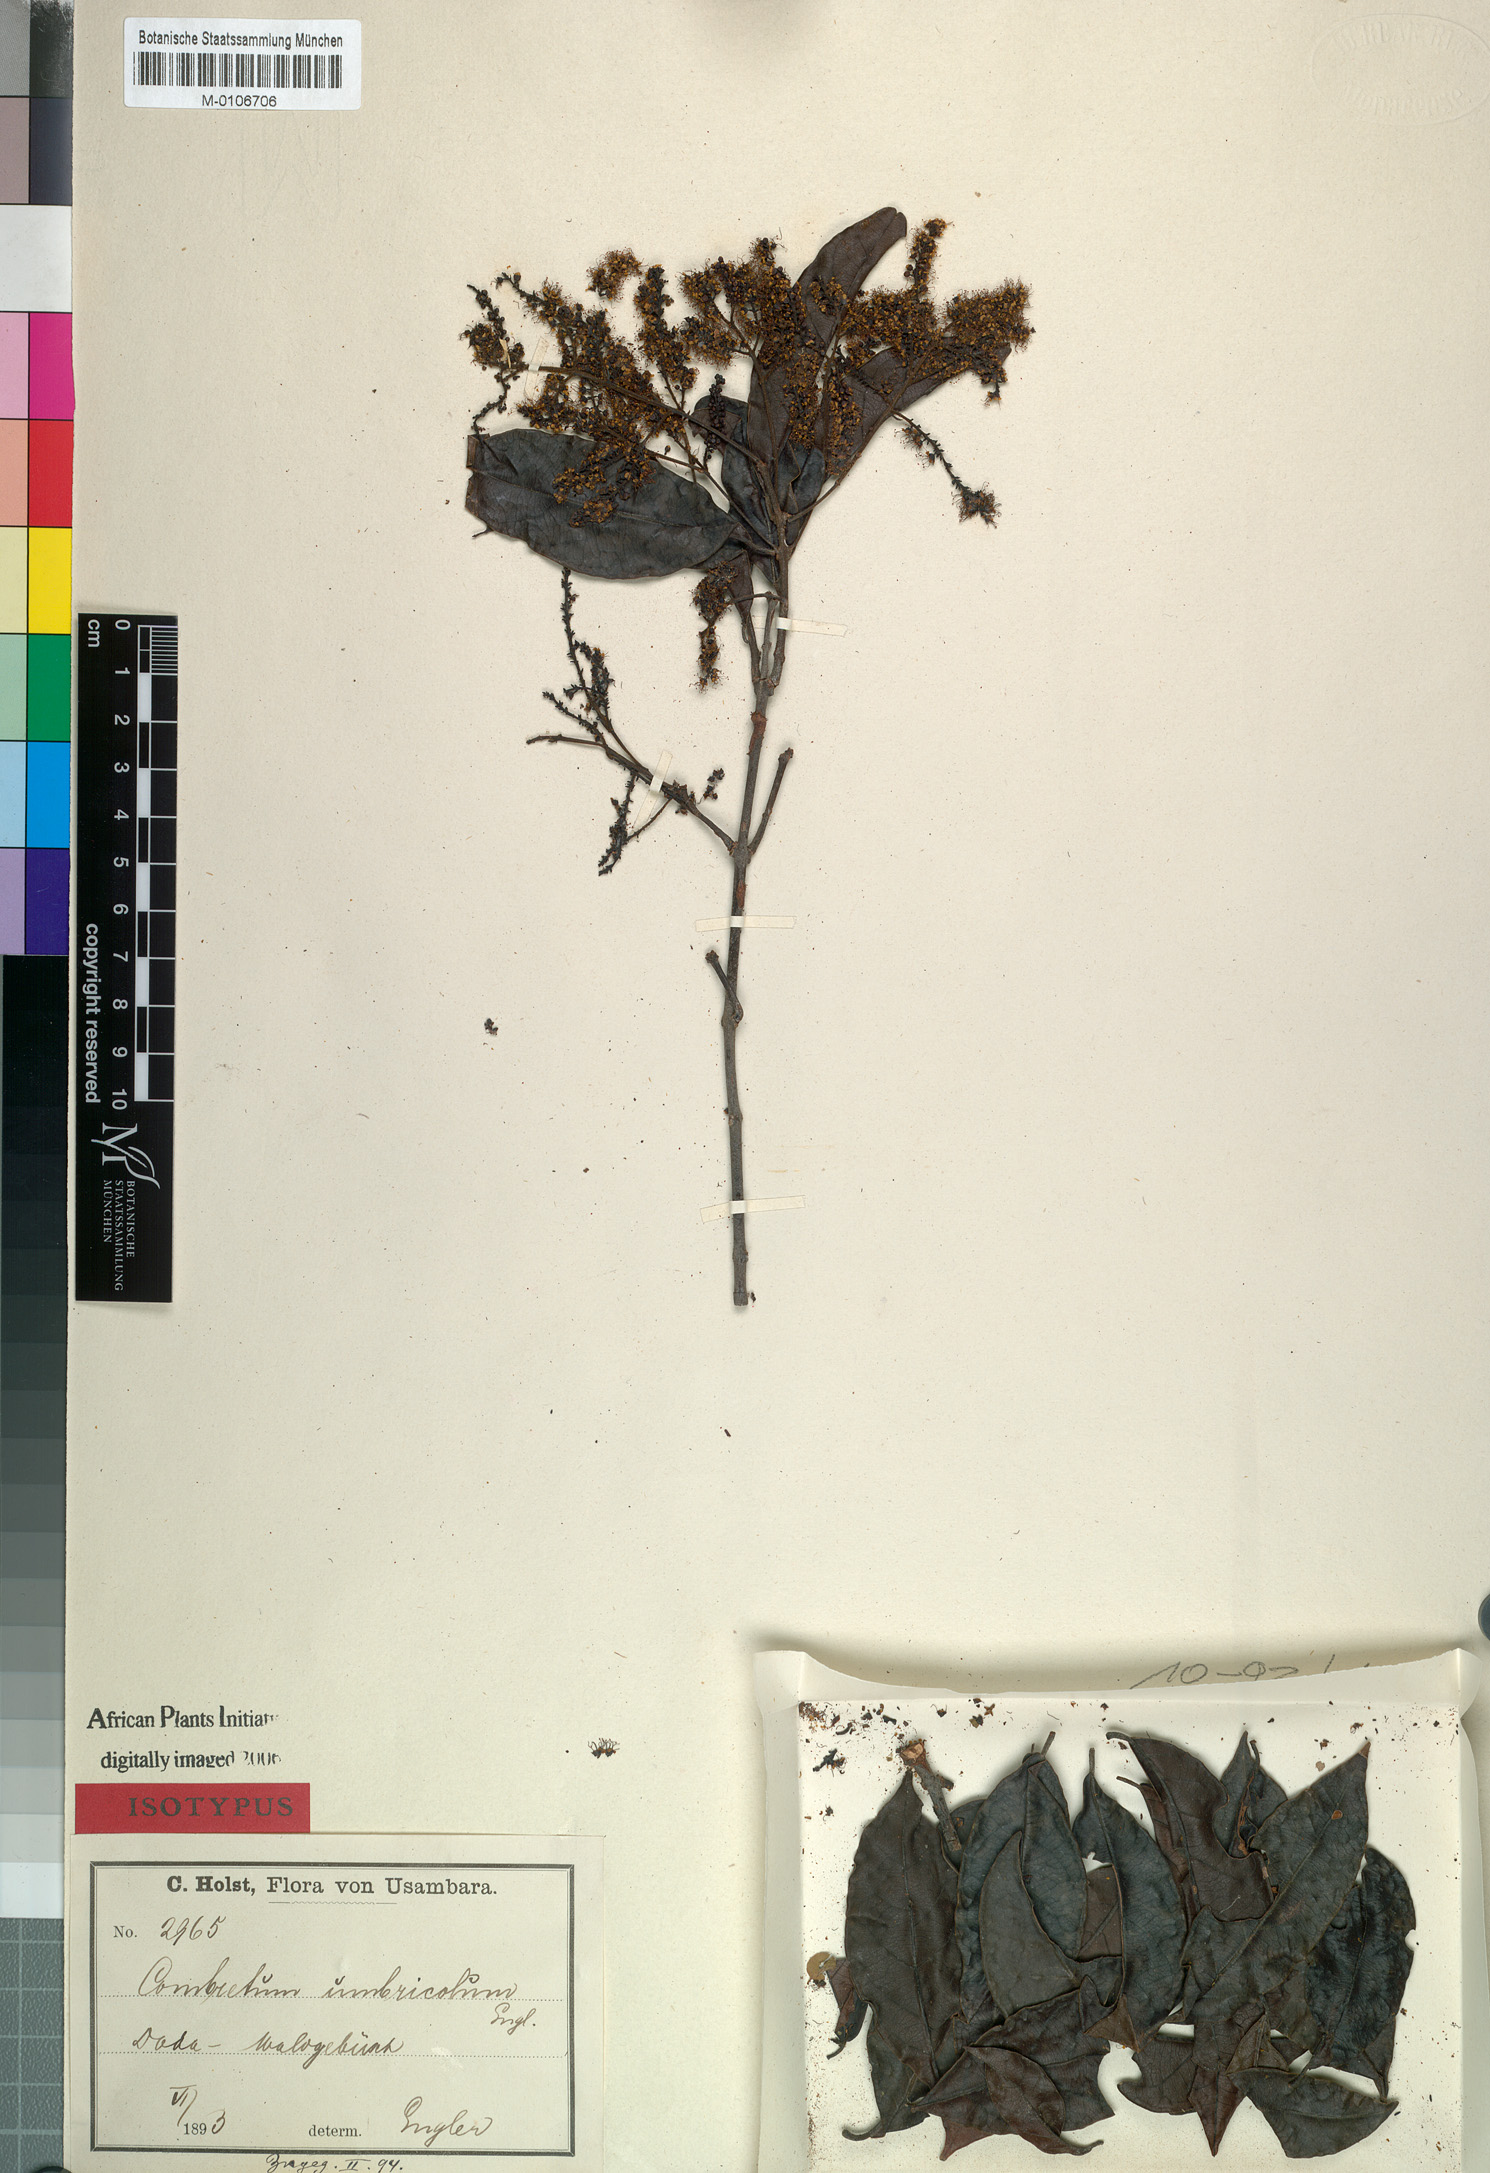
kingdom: Plantae
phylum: Tracheophyta
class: Magnoliopsida
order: Myrtales
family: Combretaceae
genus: Combretum
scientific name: Combretum umbricola
